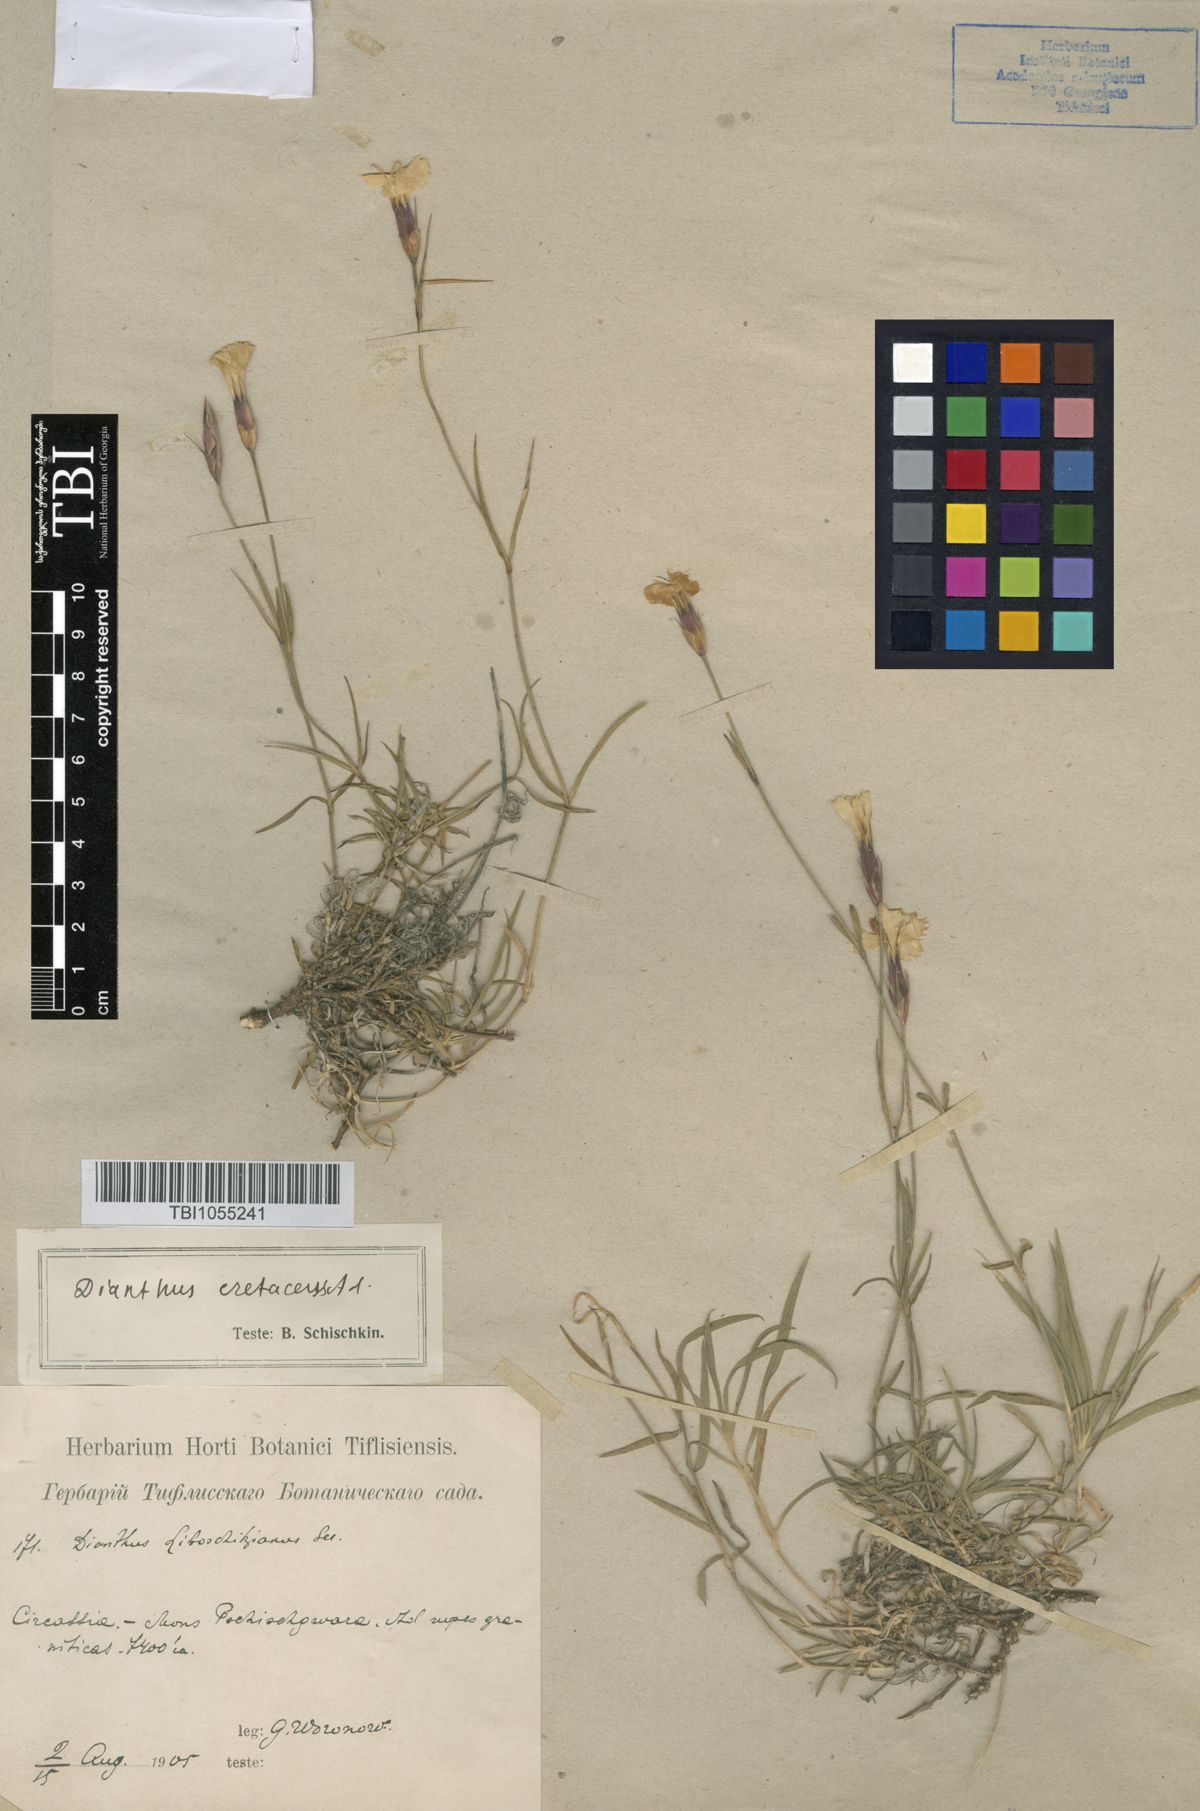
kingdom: Plantae
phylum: Tracheophyta
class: Magnoliopsida
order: Caryophyllales
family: Caryophyllaceae
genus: Dianthus
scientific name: Dianthus cretaceus
